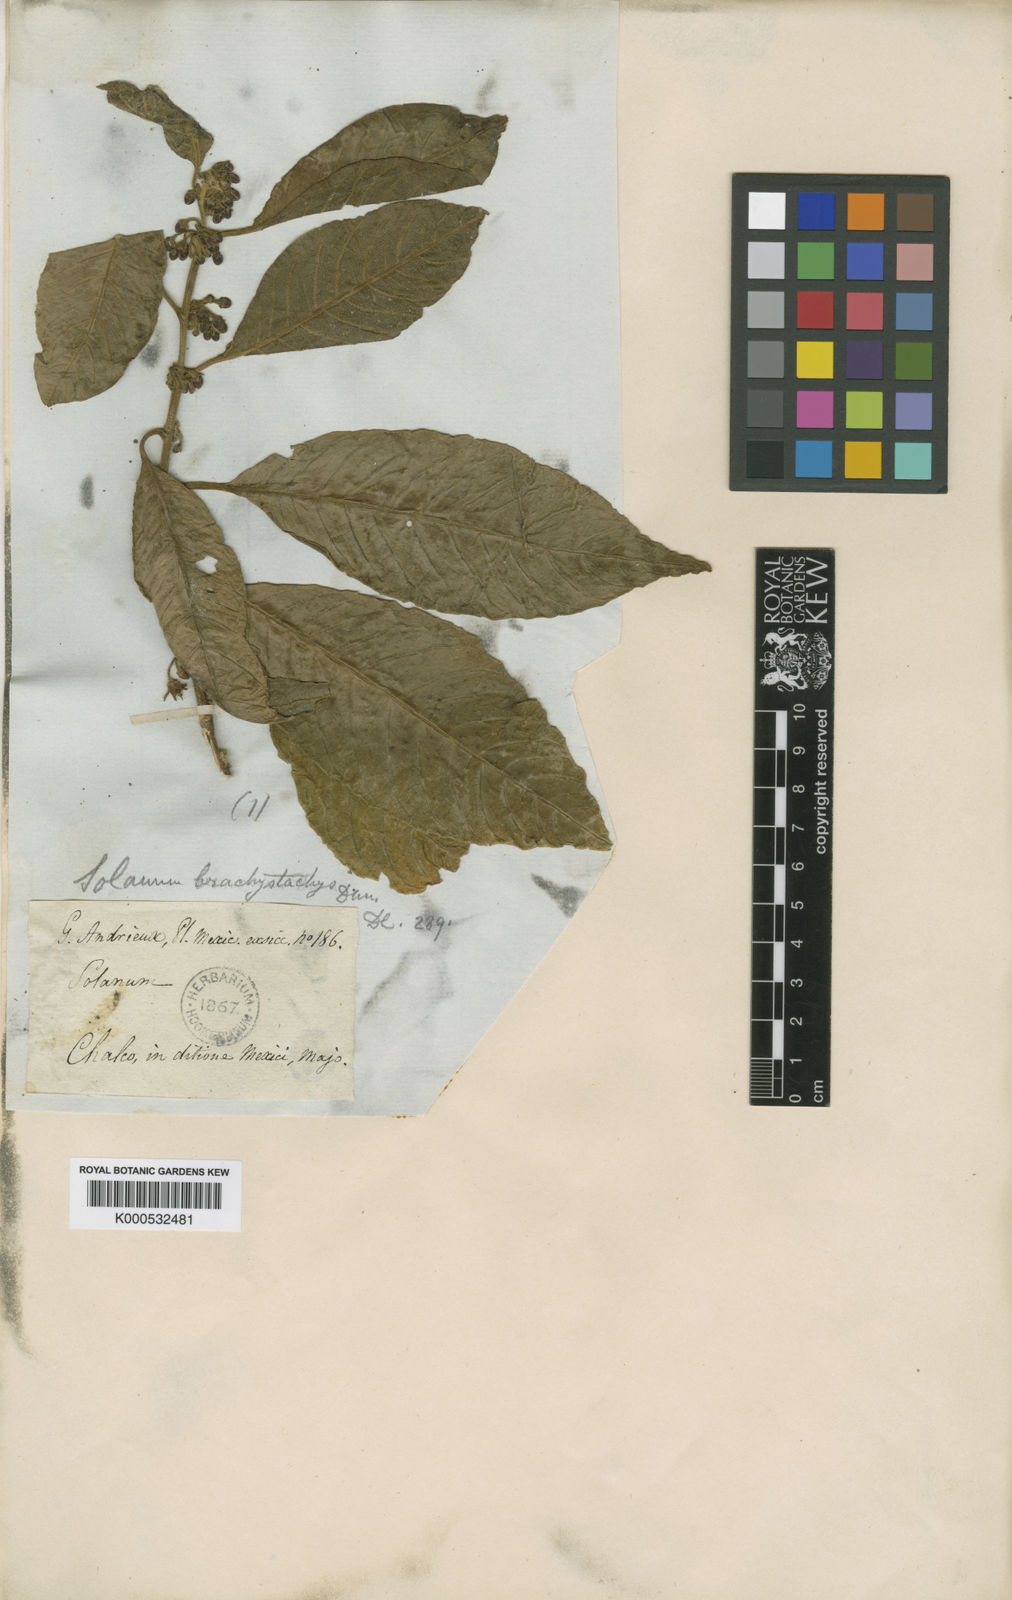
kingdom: Plantae
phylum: Tracheophyta
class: Magnoliopsida
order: Solanales
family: Solanaceae
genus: Solanum
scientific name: Solanum nigricans
